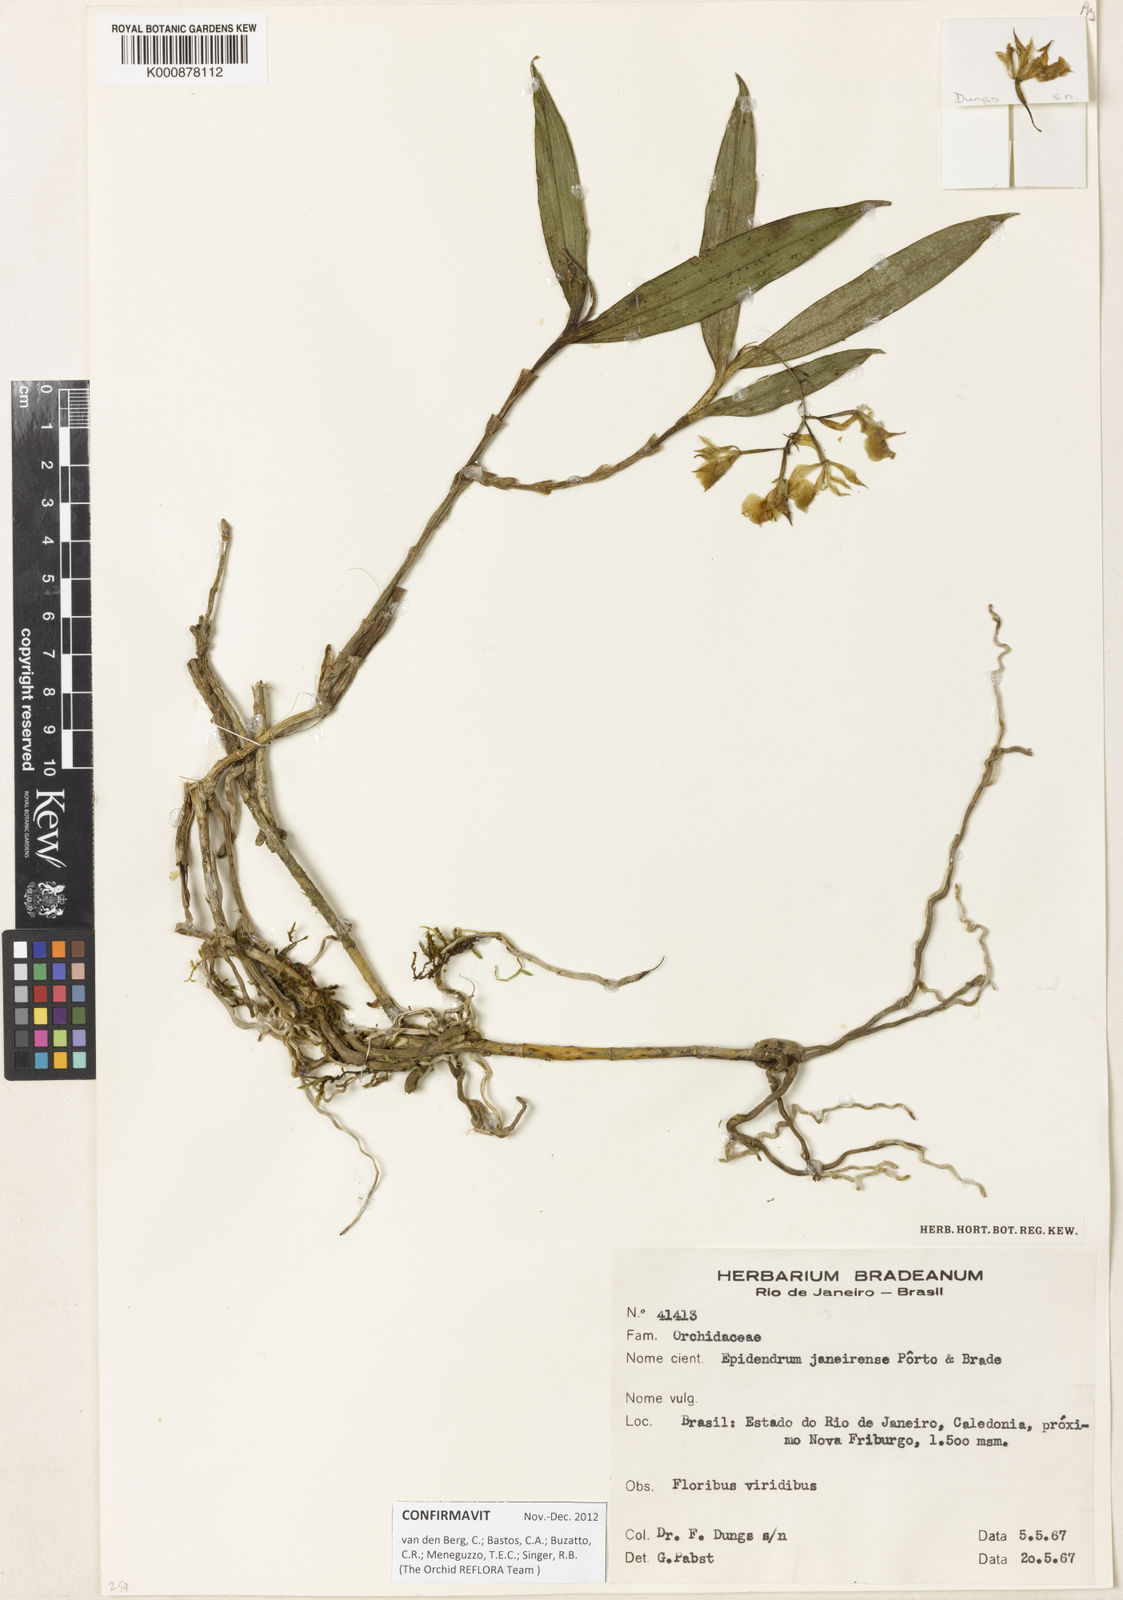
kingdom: Plantae
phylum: Tracheophyta
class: Liliopsida
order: Asparagales
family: Orchidaceae
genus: Epidendrum
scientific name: Epidendrum proligerum
